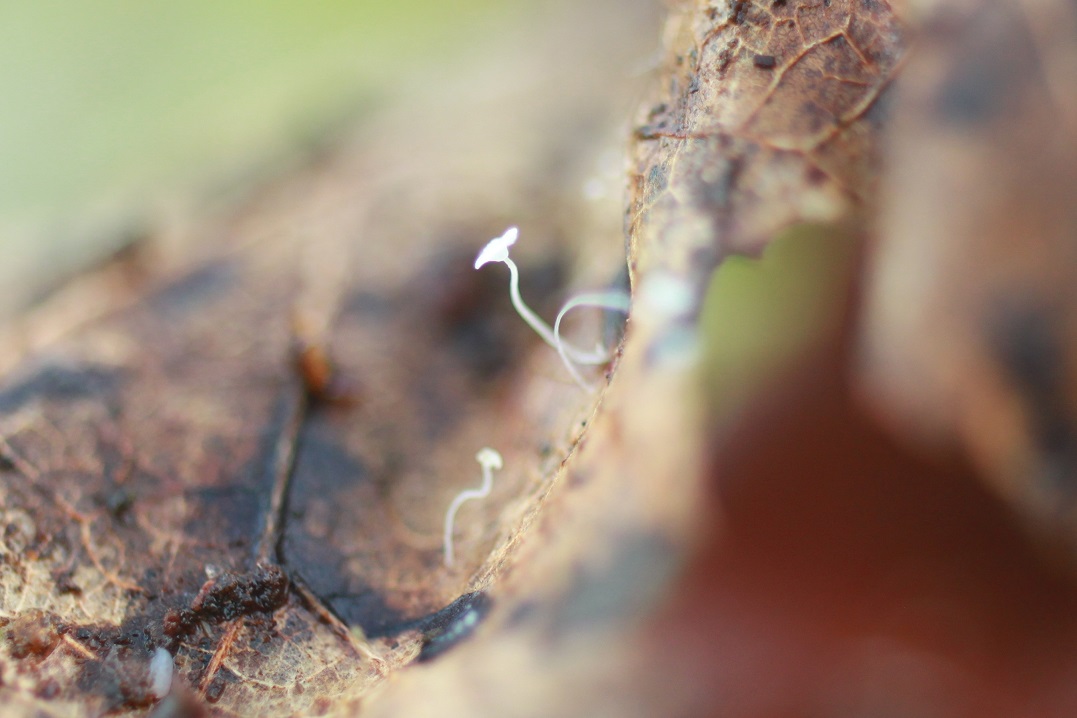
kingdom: Fungi
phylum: Basidiomycota
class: Agaricomycetes
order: Agaricales
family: Mycenaceae
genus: Mycena
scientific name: Mycena polyadelpha
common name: egeblads-huesvamp
